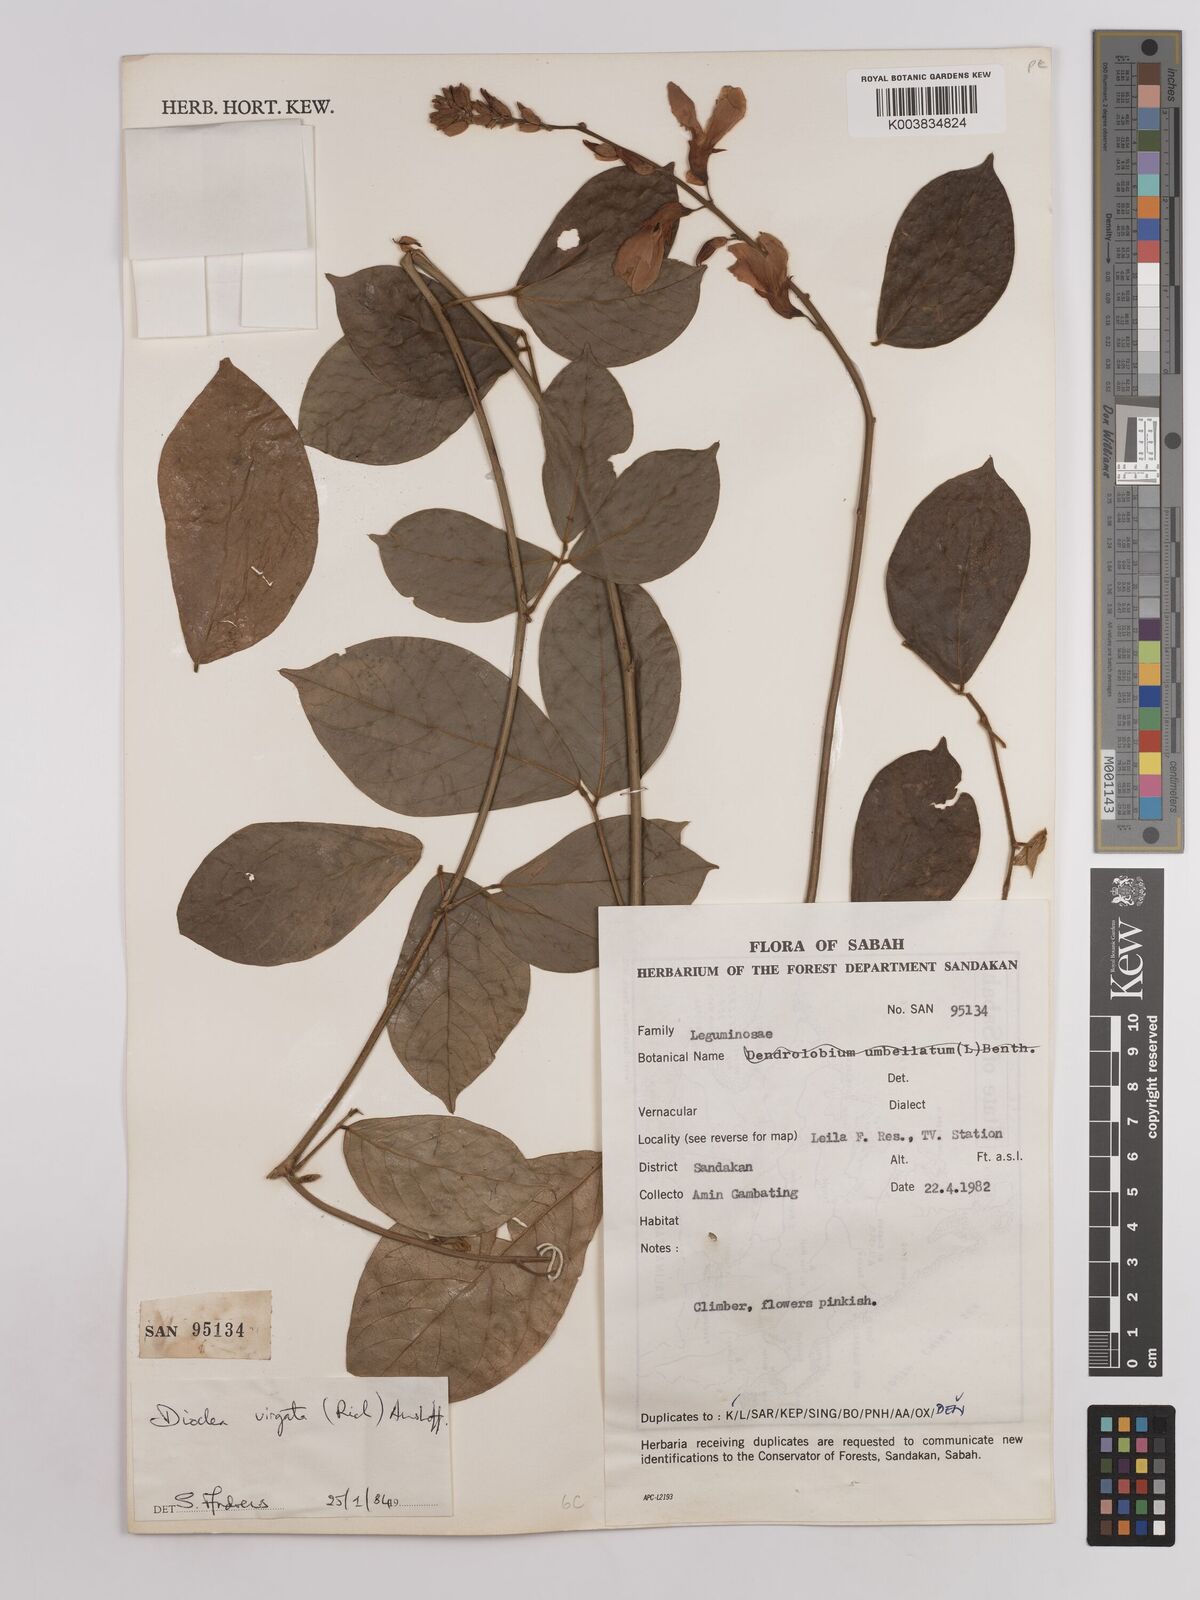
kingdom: Plantae
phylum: Tracheophyta
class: Magnoliopsida
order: Fabales
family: Fabaceae
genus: Dioclea
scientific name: Dioclea virgata
